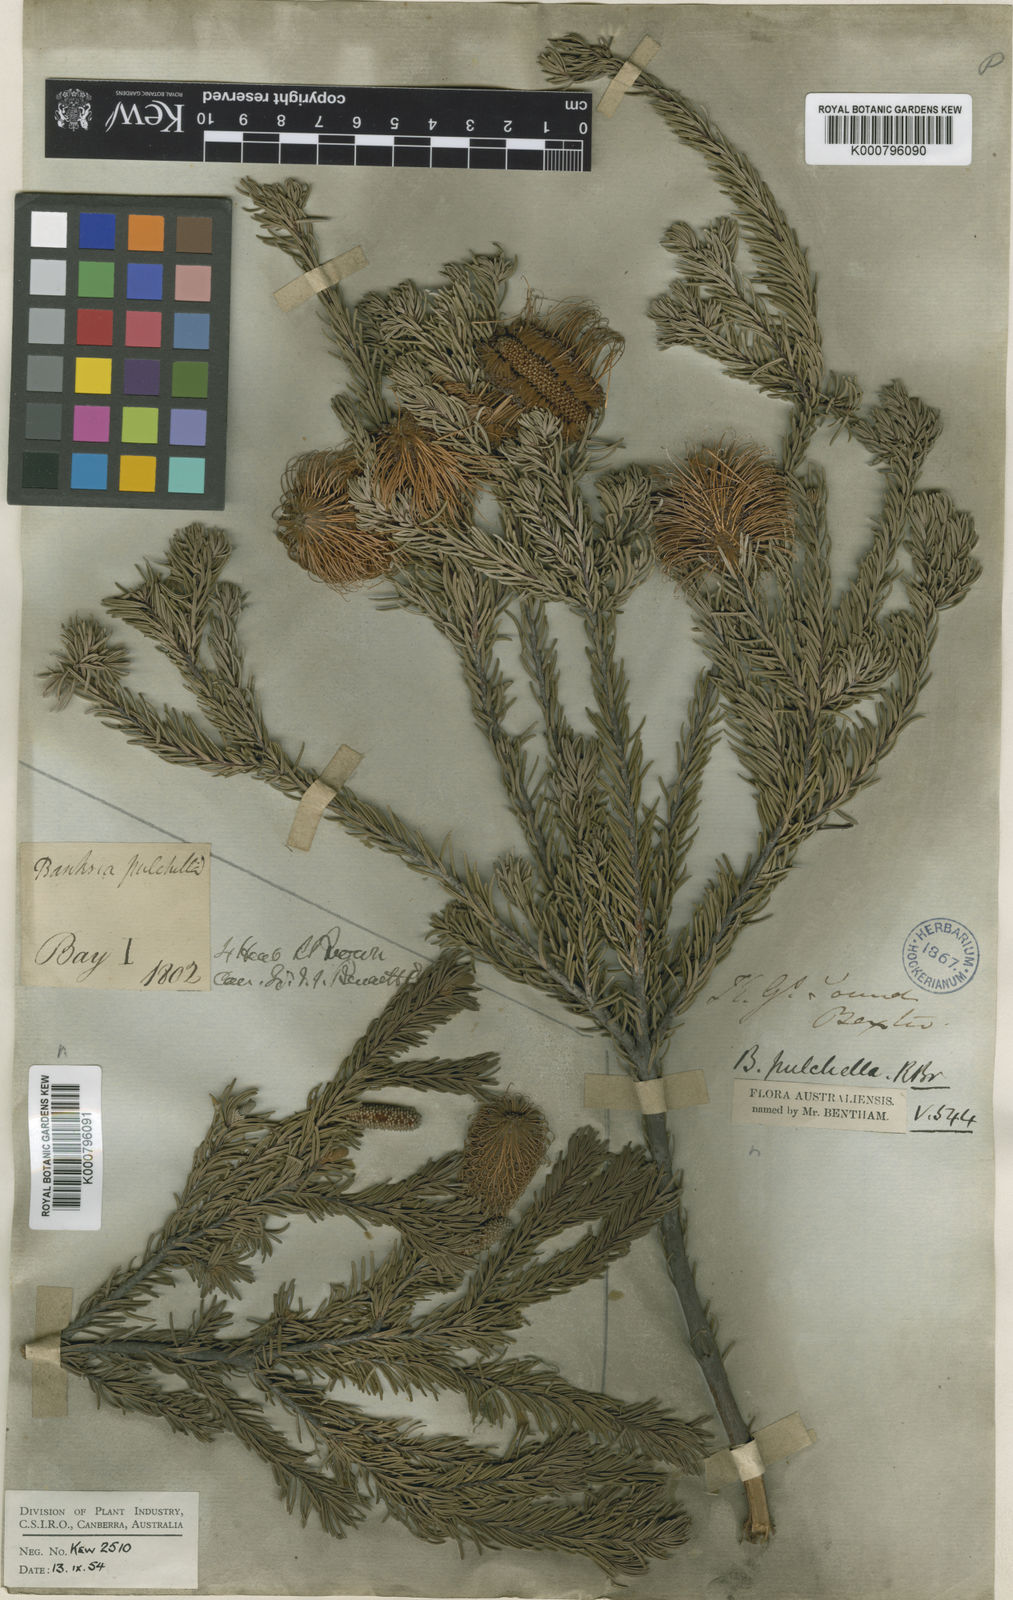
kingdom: Plantae
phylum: Tracheophyta
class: Magnoliopsida
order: Proteales
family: Proteaceae
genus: Banksia
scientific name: Banksia pulchella
